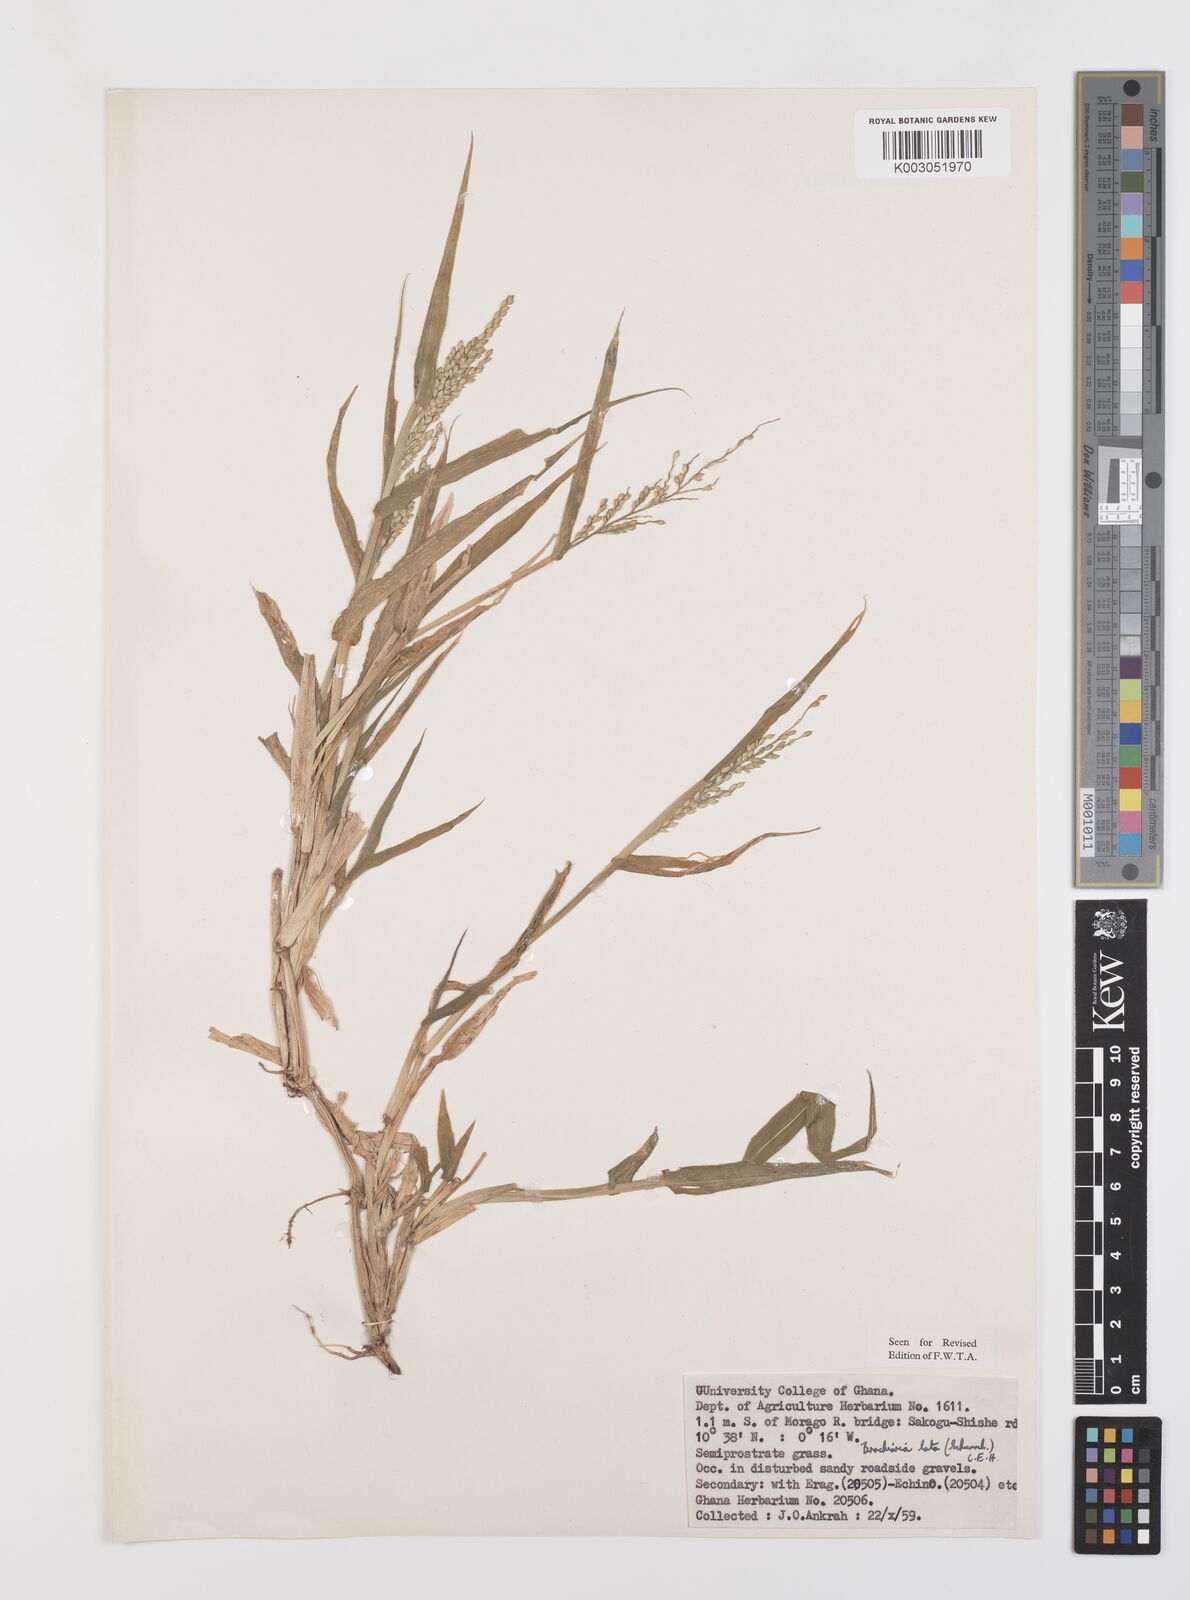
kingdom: Plantae
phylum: Tracheophyta
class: Liliopsida
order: Poales
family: Poaceae
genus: Urochloa
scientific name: Urochloa lata
